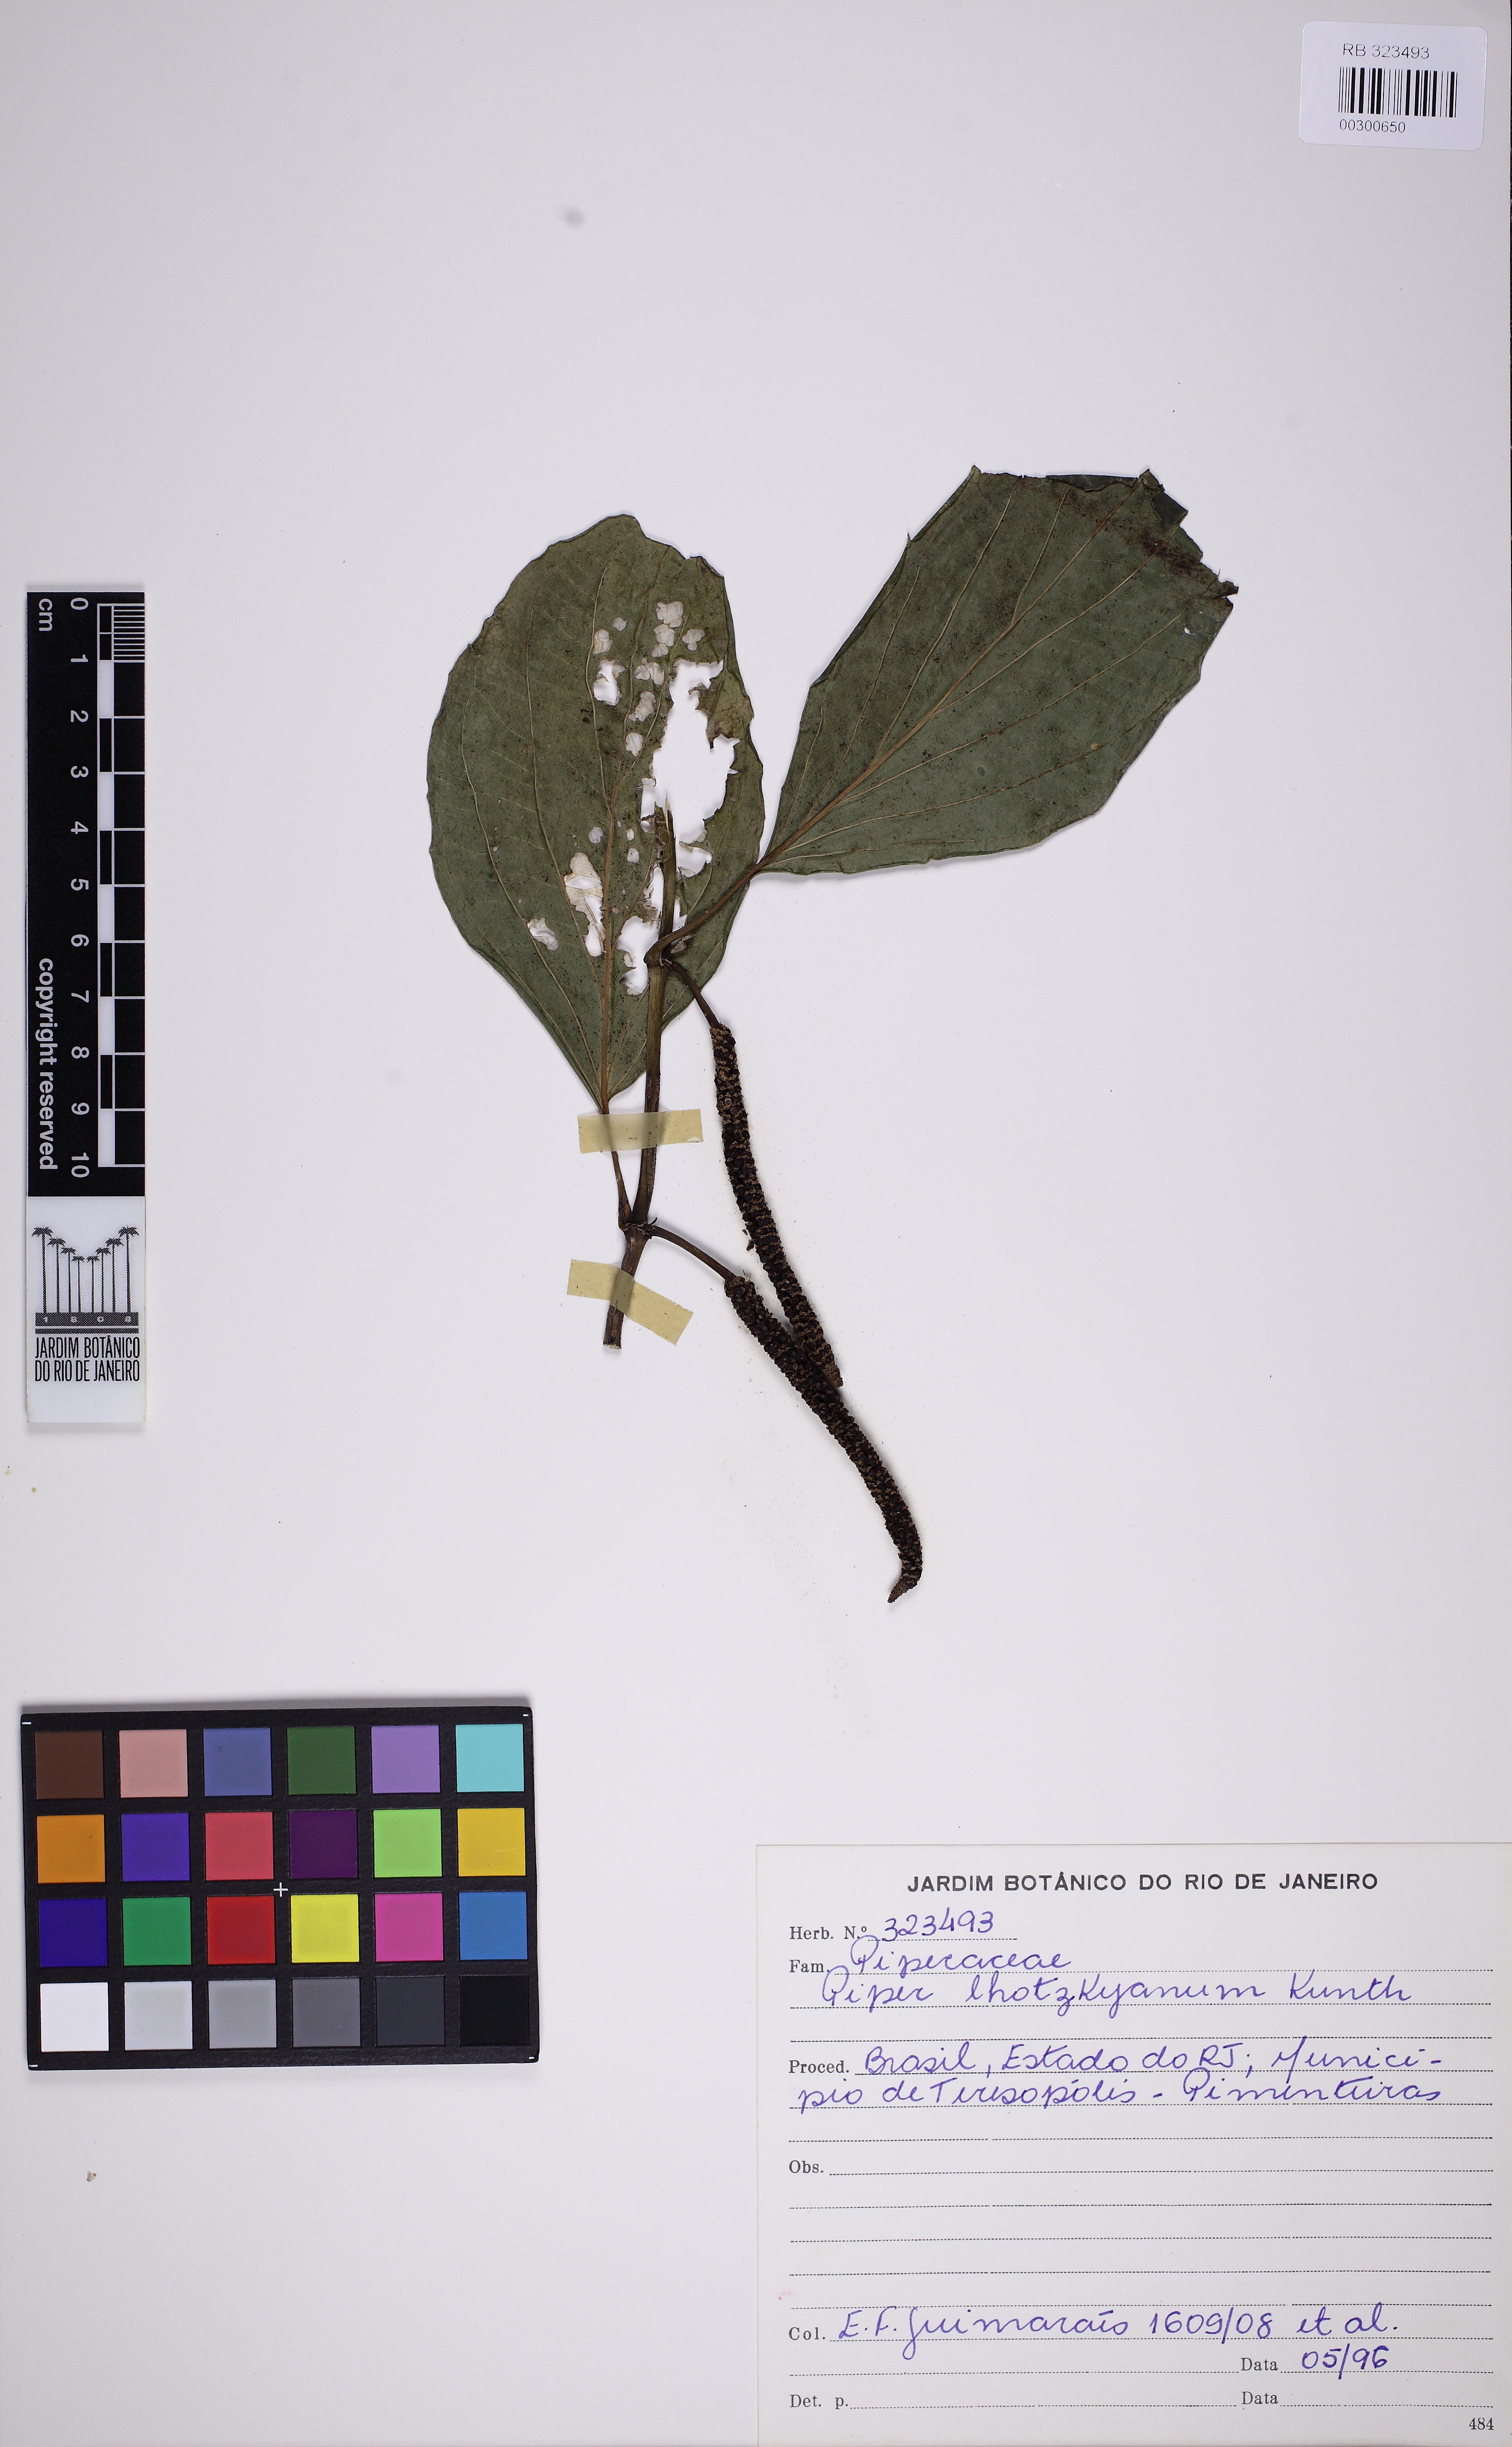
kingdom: Plantae
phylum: Tracheophyta
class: Magnoliopsida
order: Piperales
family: Piperaceae
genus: Piper
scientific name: Piper lhotzkyanum
